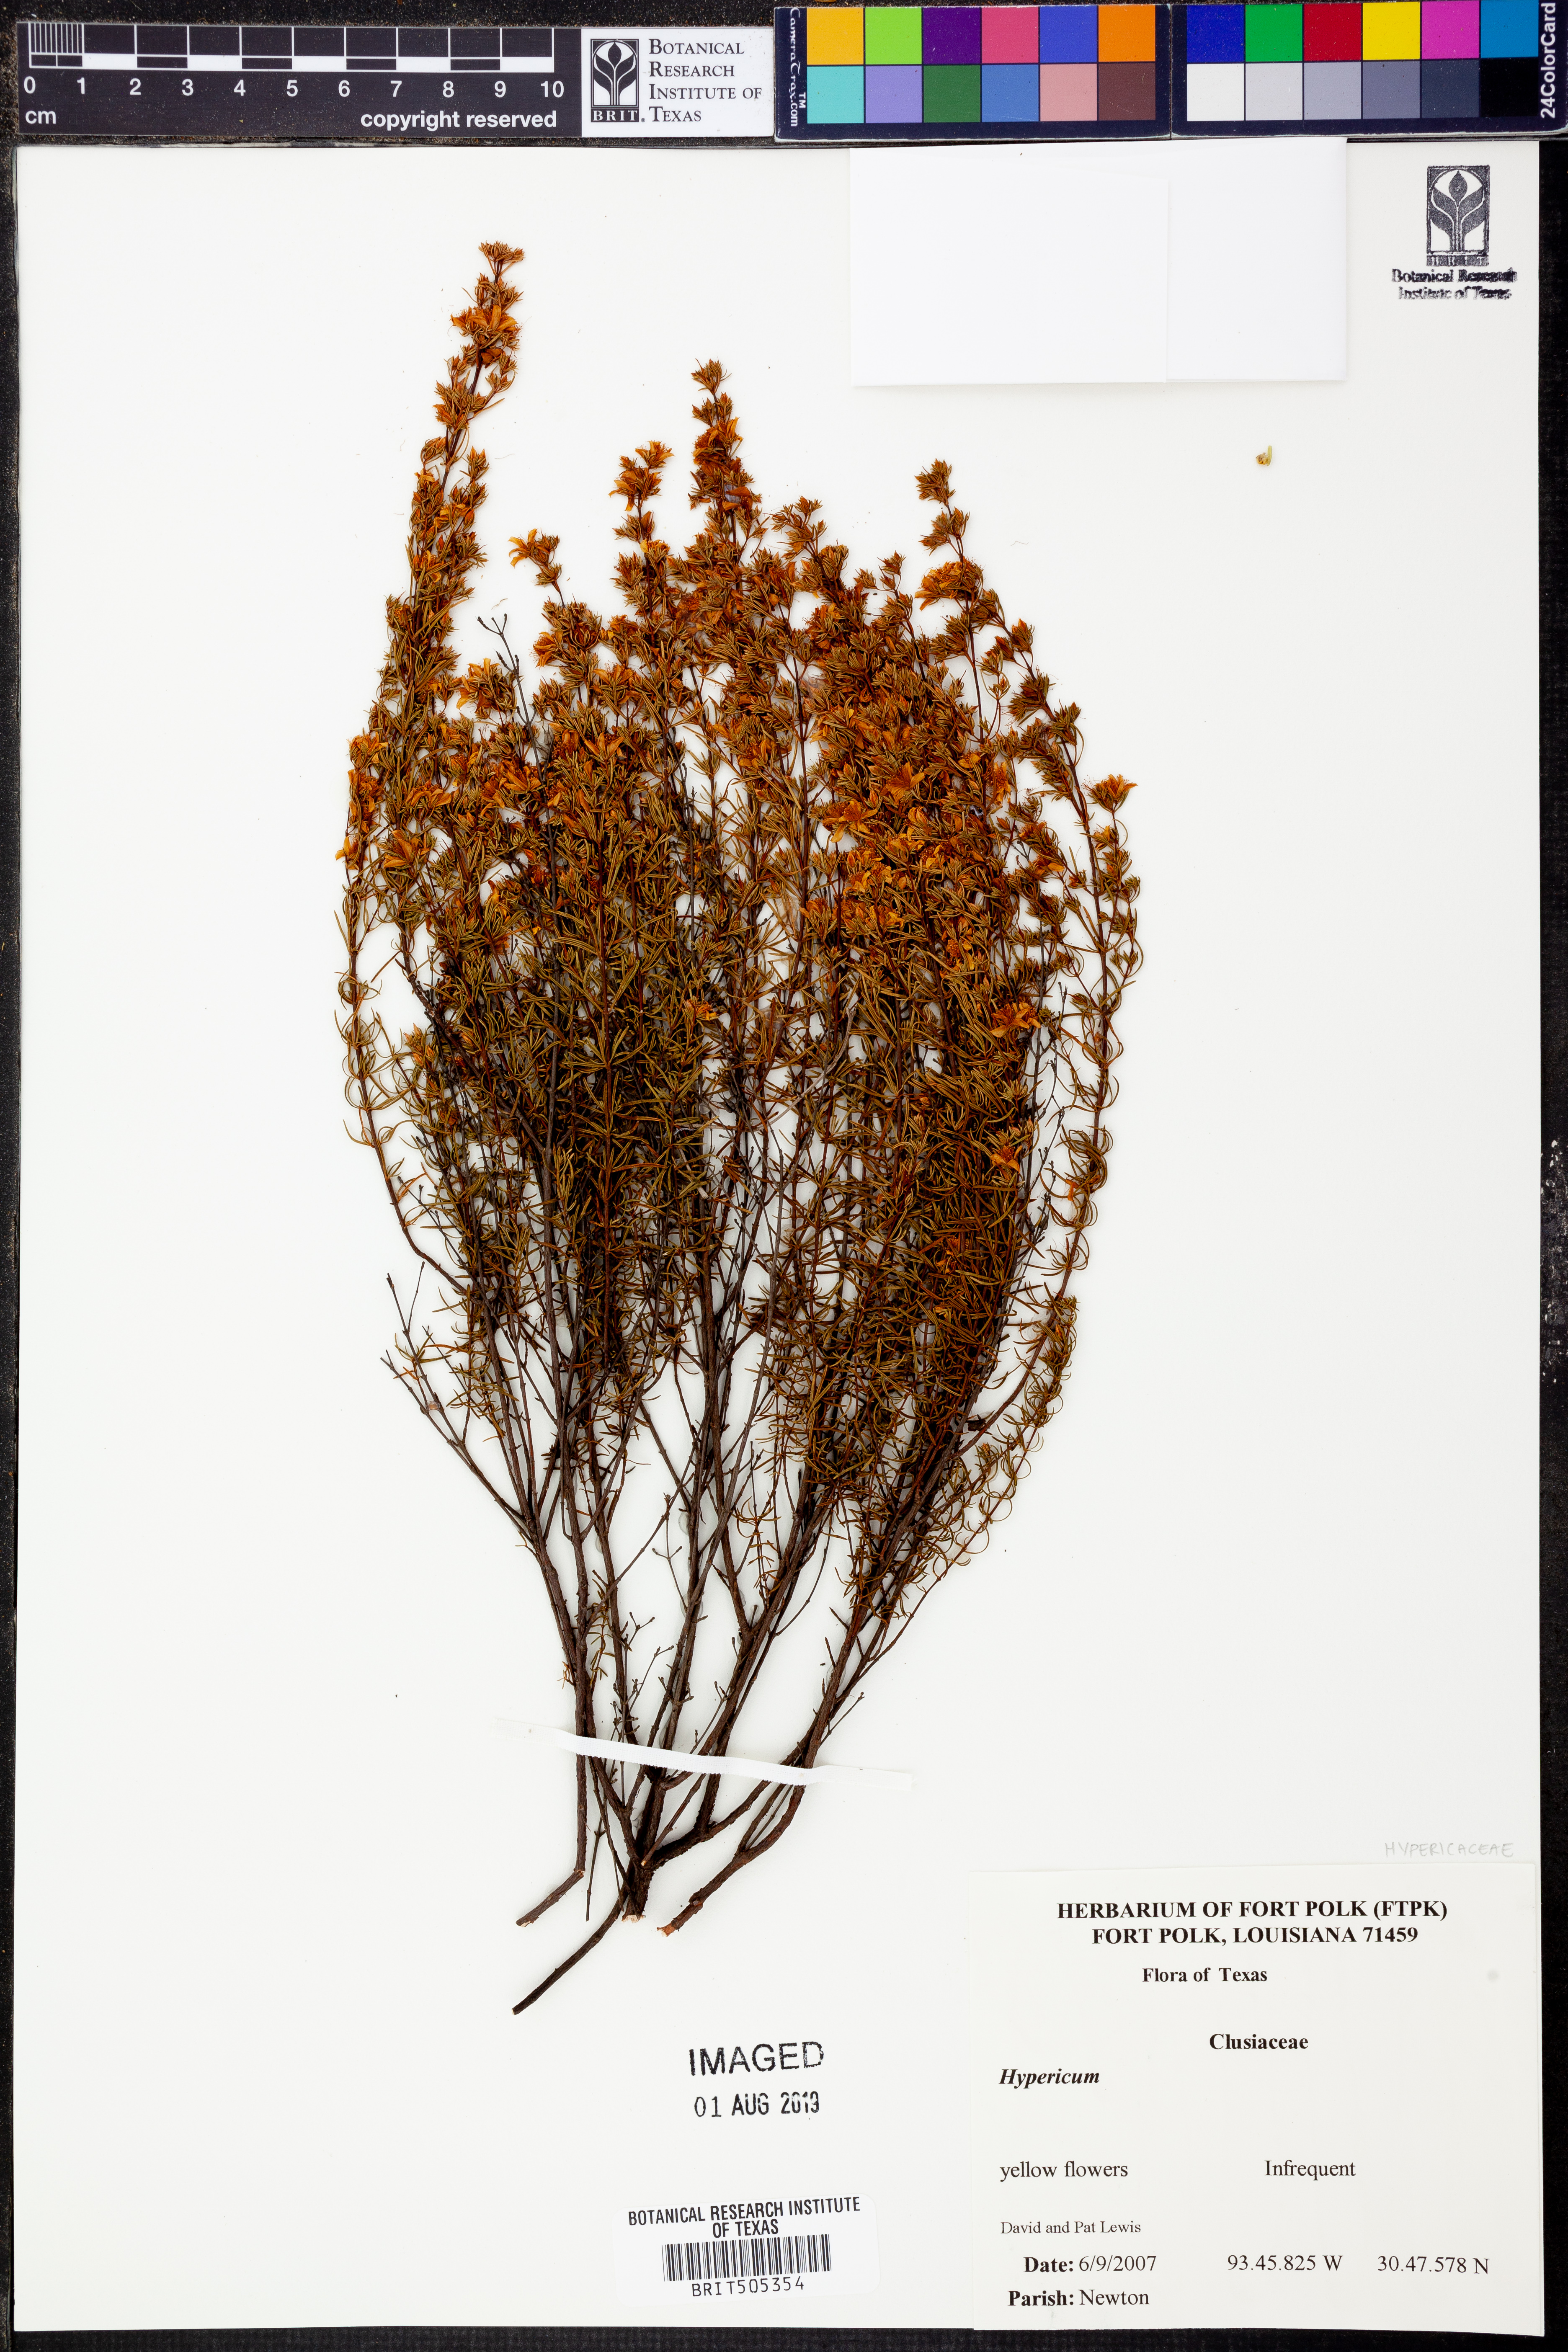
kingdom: Plantae
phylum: Tracheophyta
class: Magnoliopsida
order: Malpighiales
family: Hypericaceae
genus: Hypericum
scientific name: Hypericum
